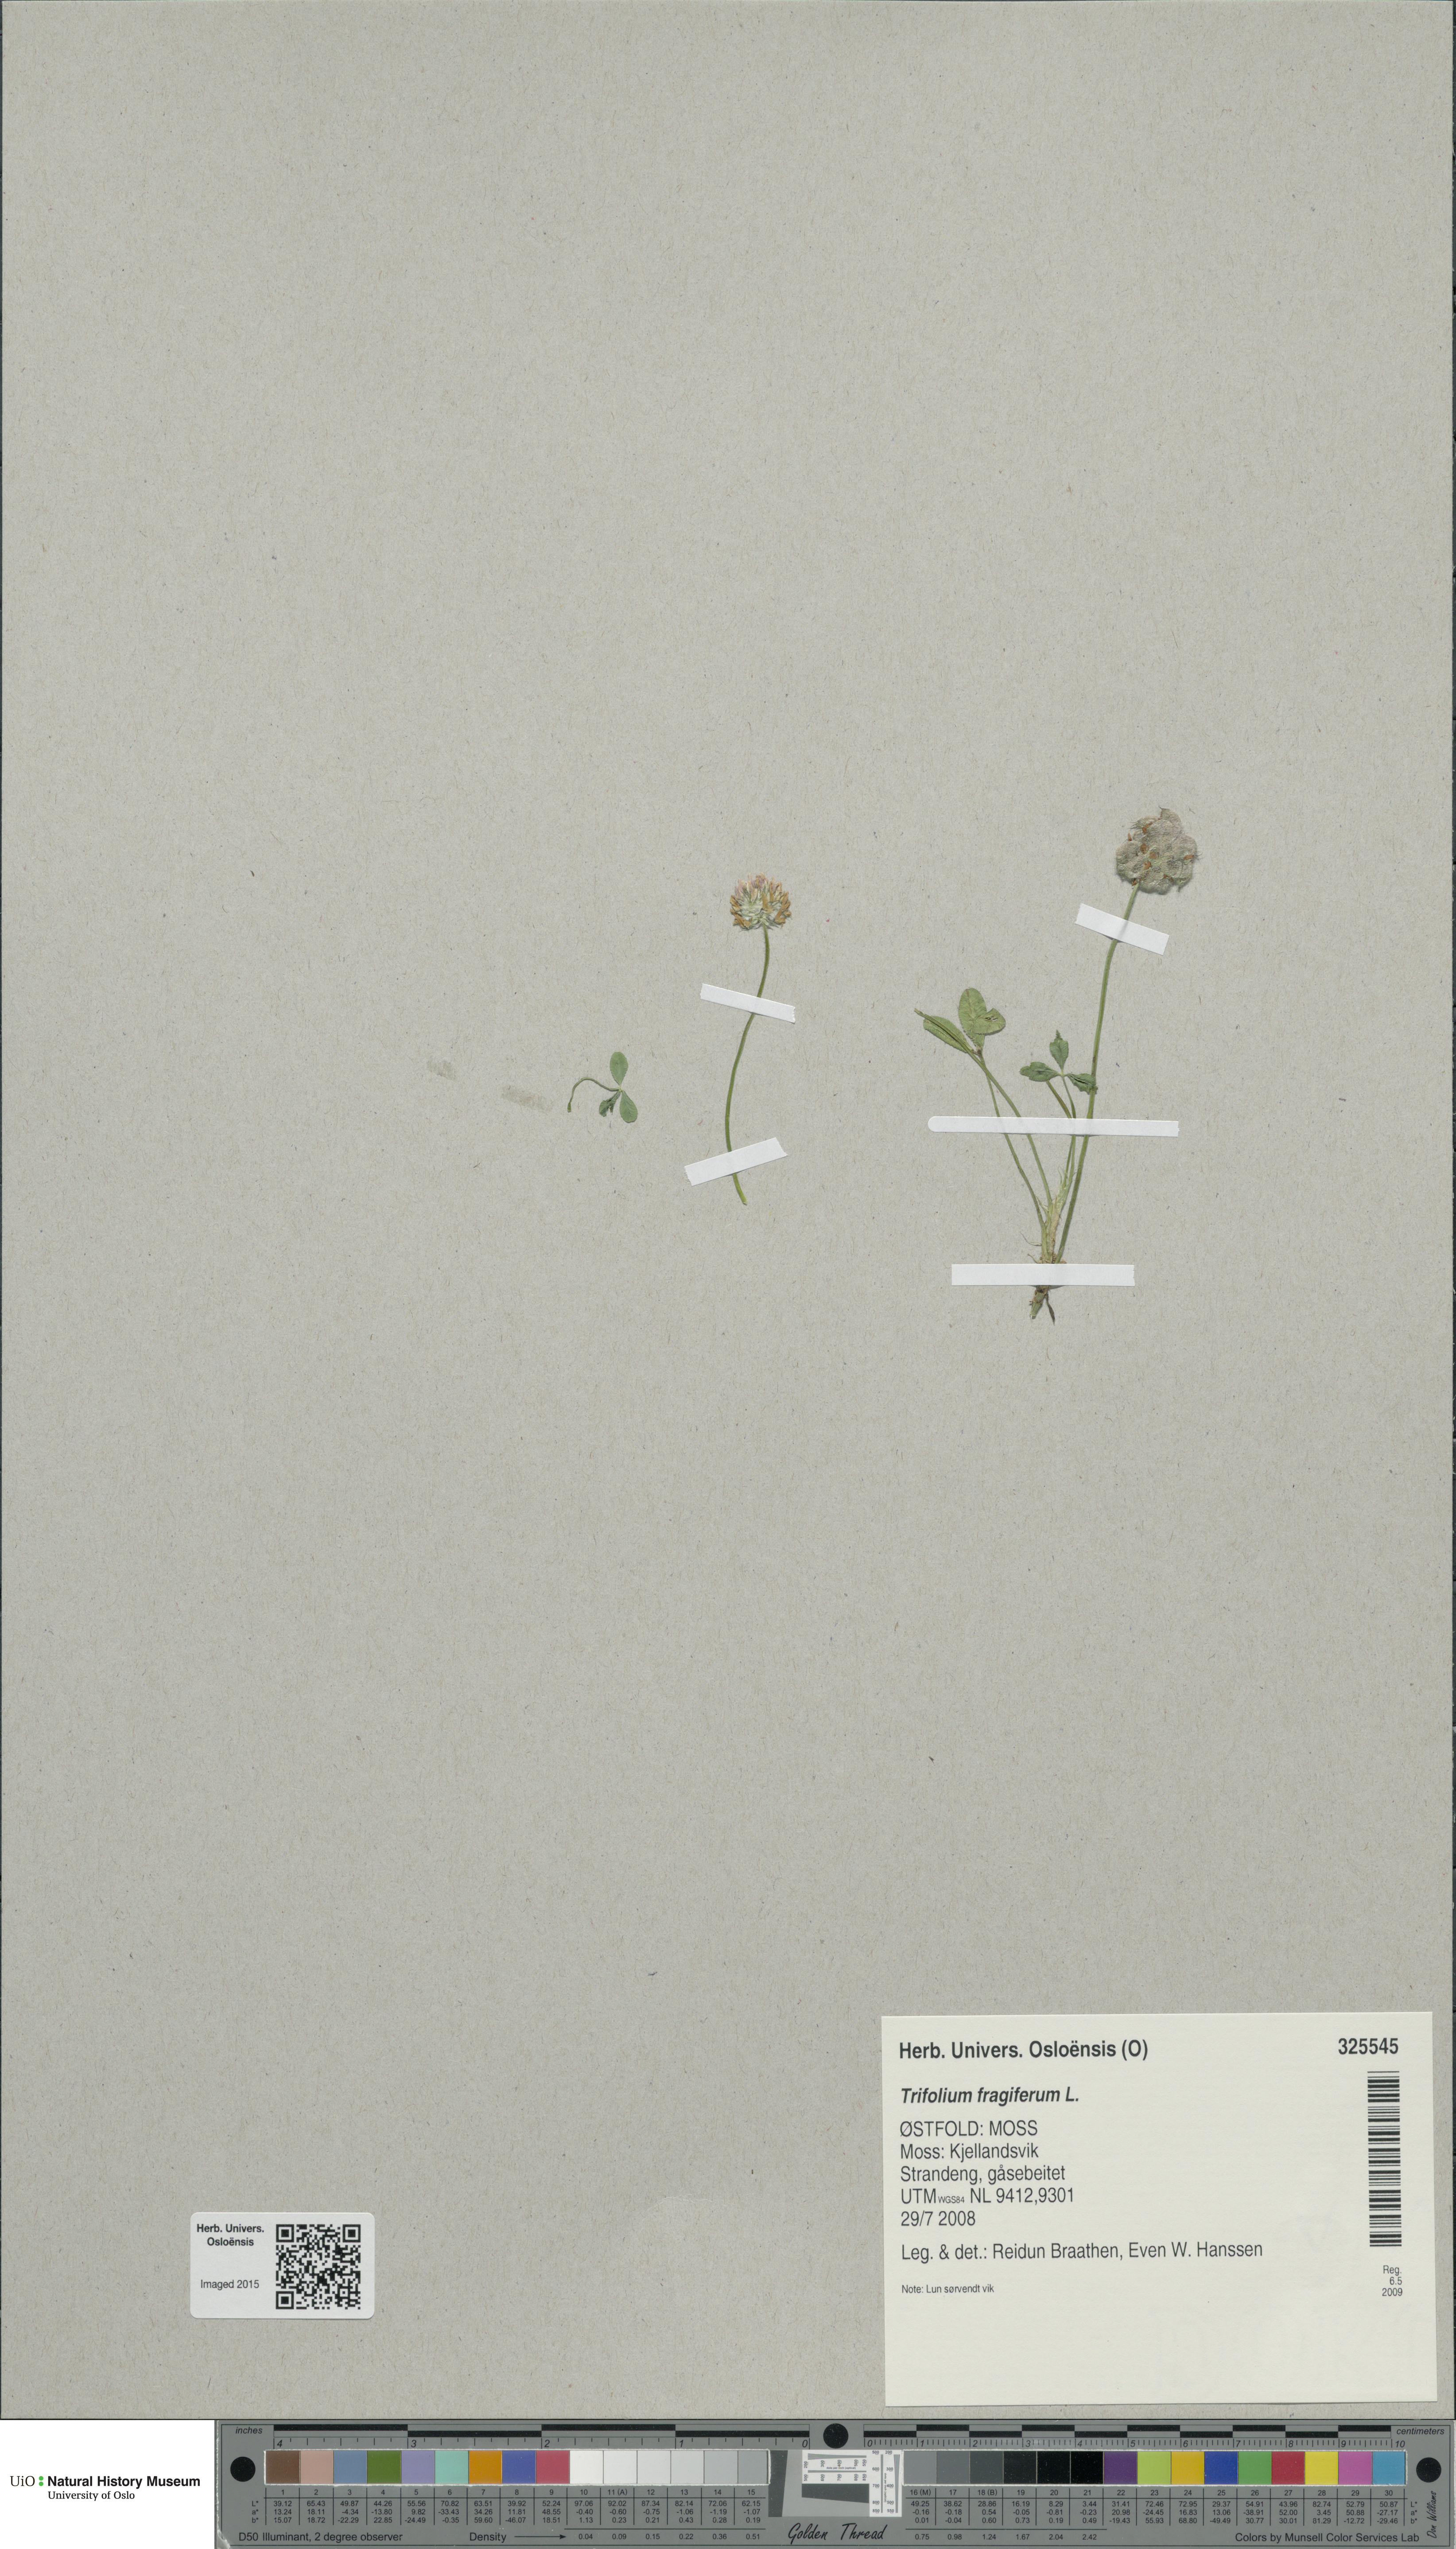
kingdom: Plantae
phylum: Tracheophyta
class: Magnoliopsida
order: Fabales
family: Fabaceae
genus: Trifolium
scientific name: Trifolium fragiferum
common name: Strawberry clover
